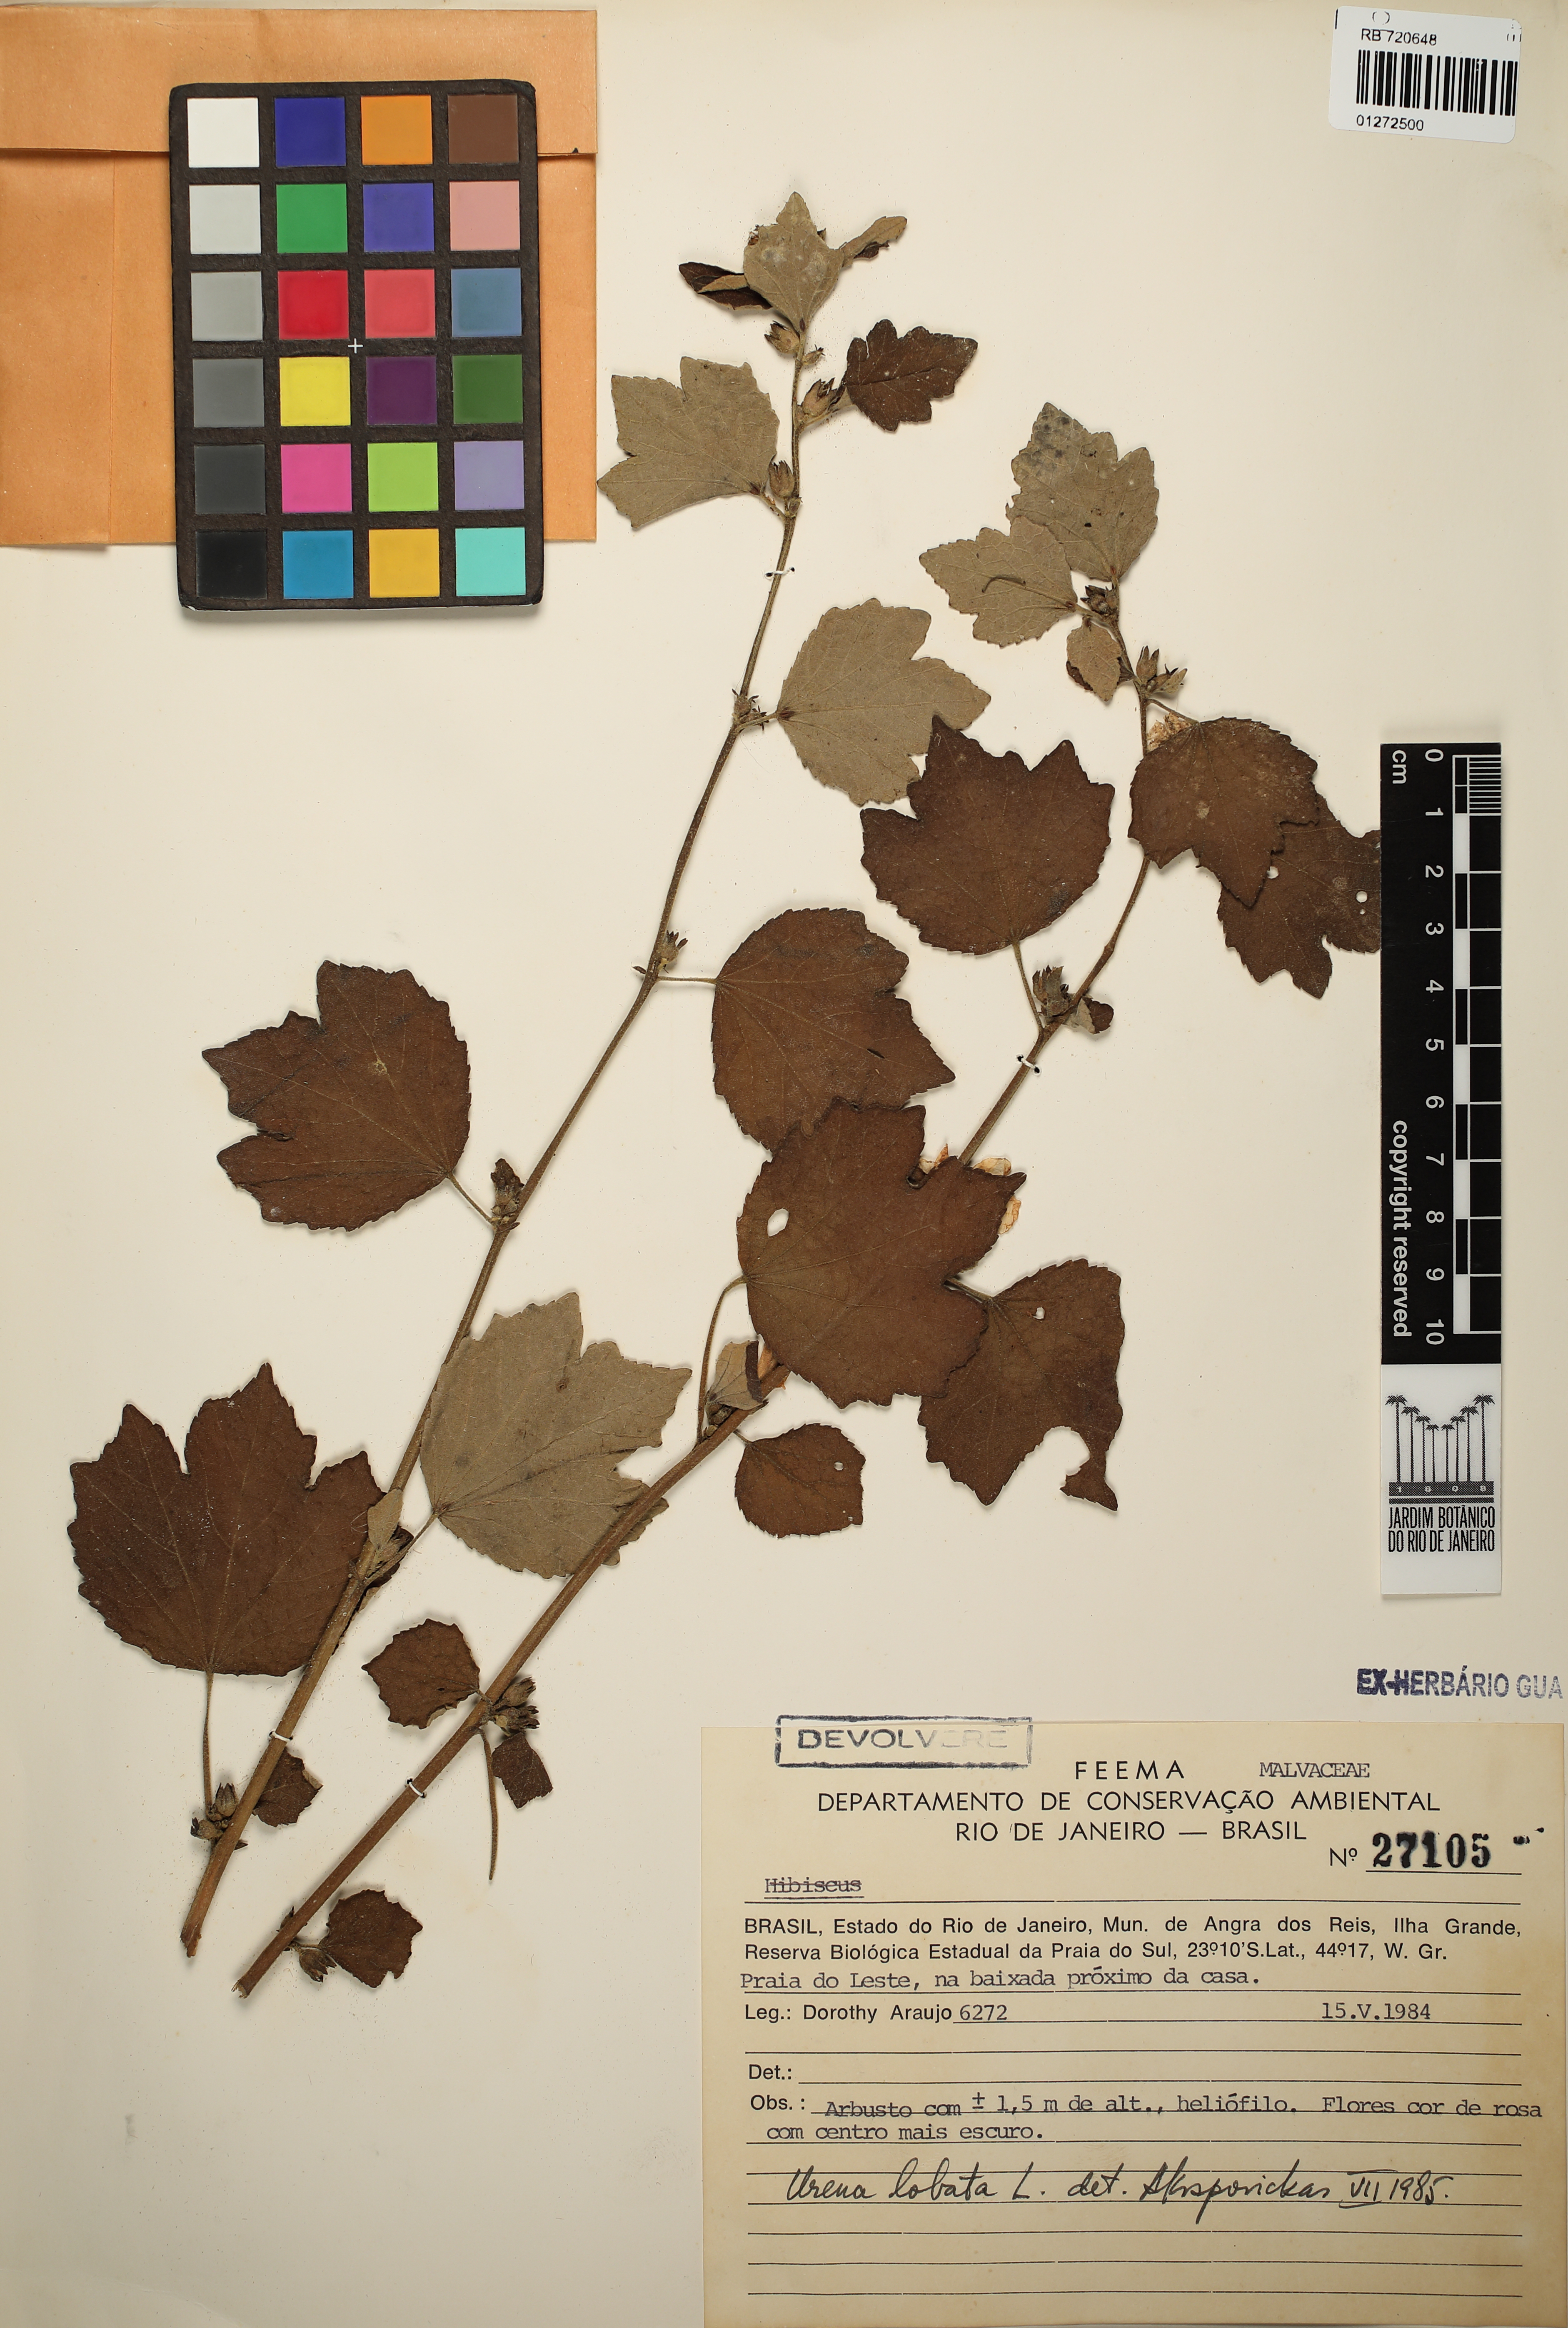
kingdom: Plantae
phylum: Tracheophyta
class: Magnoliopsida
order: Malvales
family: Malvaceae
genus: Urena
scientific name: Urena lobata
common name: Caesarweed
